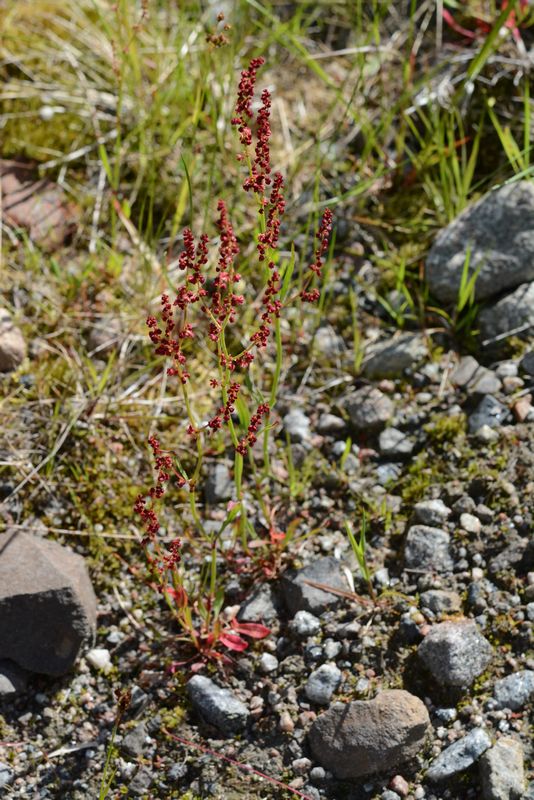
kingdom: Plantae
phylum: Tracheophyta
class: Magnoliopsida
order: Caryophyllales
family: Polygonaceae
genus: Rumex
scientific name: Rumex acetosella
